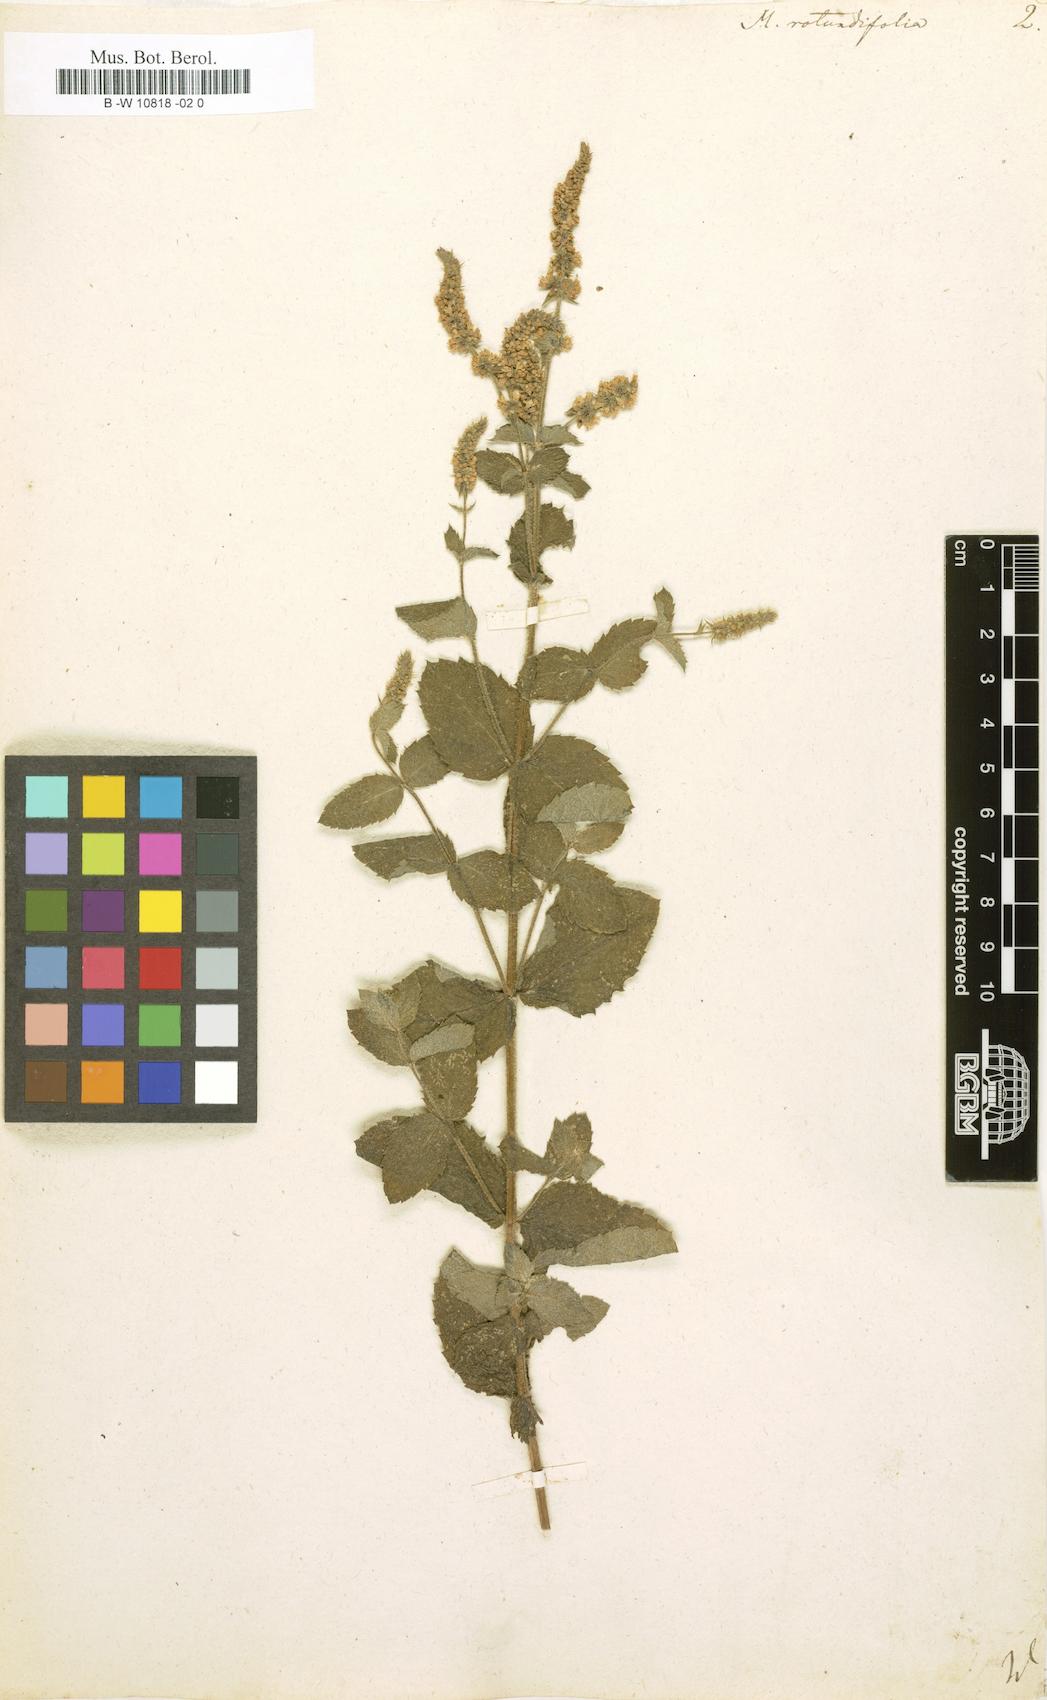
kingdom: Plantae
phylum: Tracheophyta
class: Magnoliopsida
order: Lamiales
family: Lamiaceae
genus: Mentha
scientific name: Mentha rotundifolia
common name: Bigleaf mint
